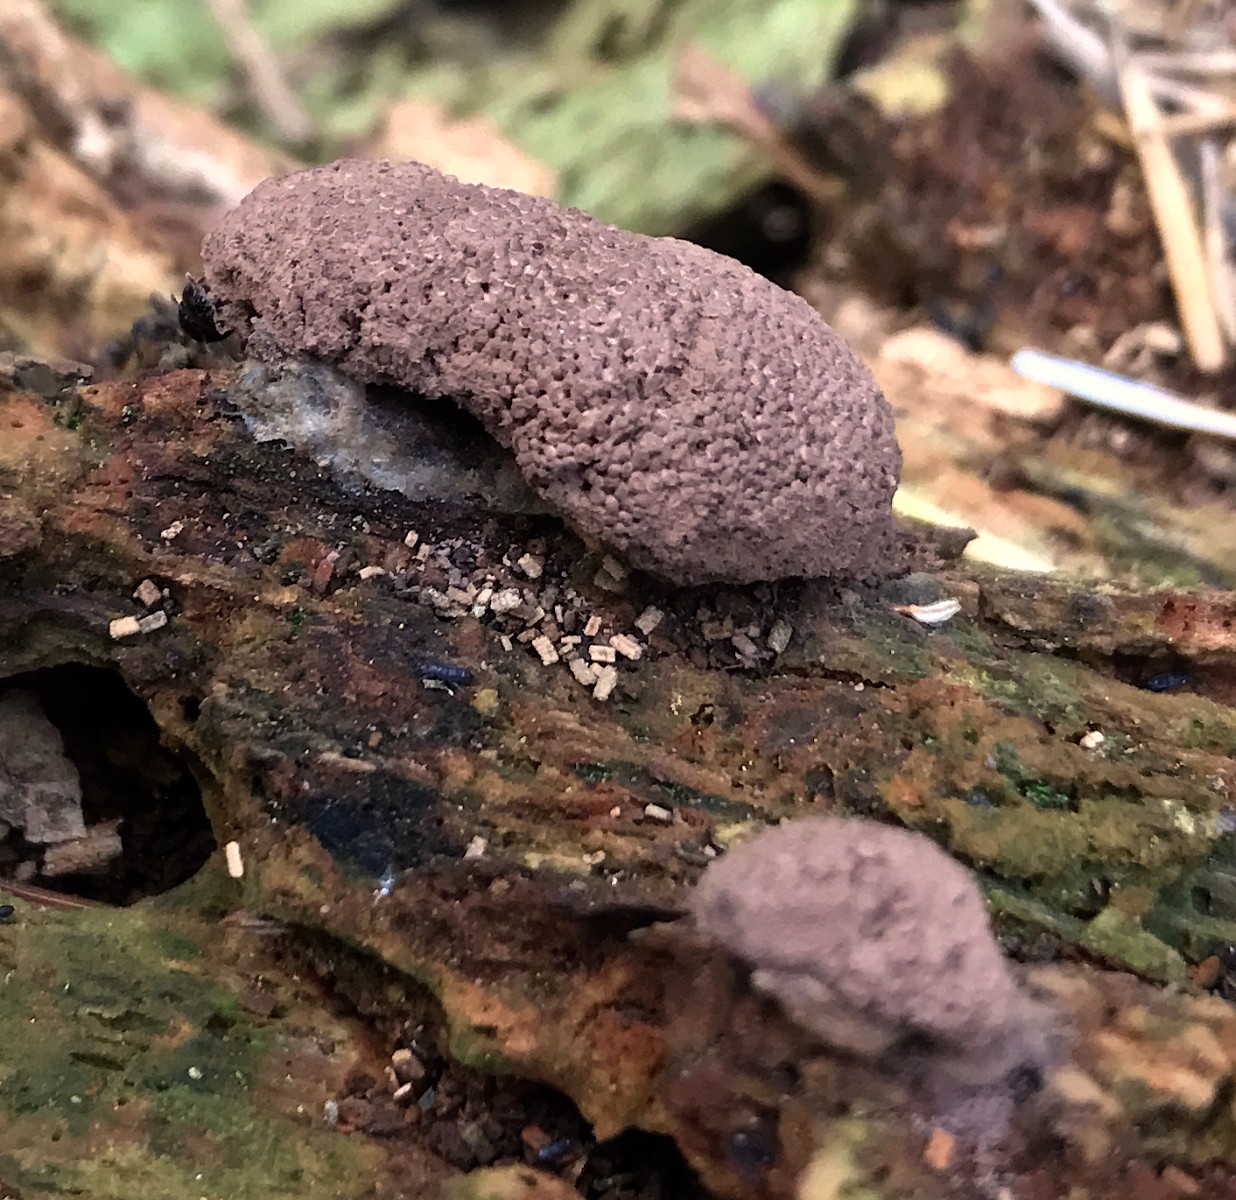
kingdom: Protozoa
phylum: Mycetozoa
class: Myxomycetes
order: Cribrariales
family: Tubiferaceae
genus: Tubifera
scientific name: Tubifera ferruginosa
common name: kanel-støvrør
